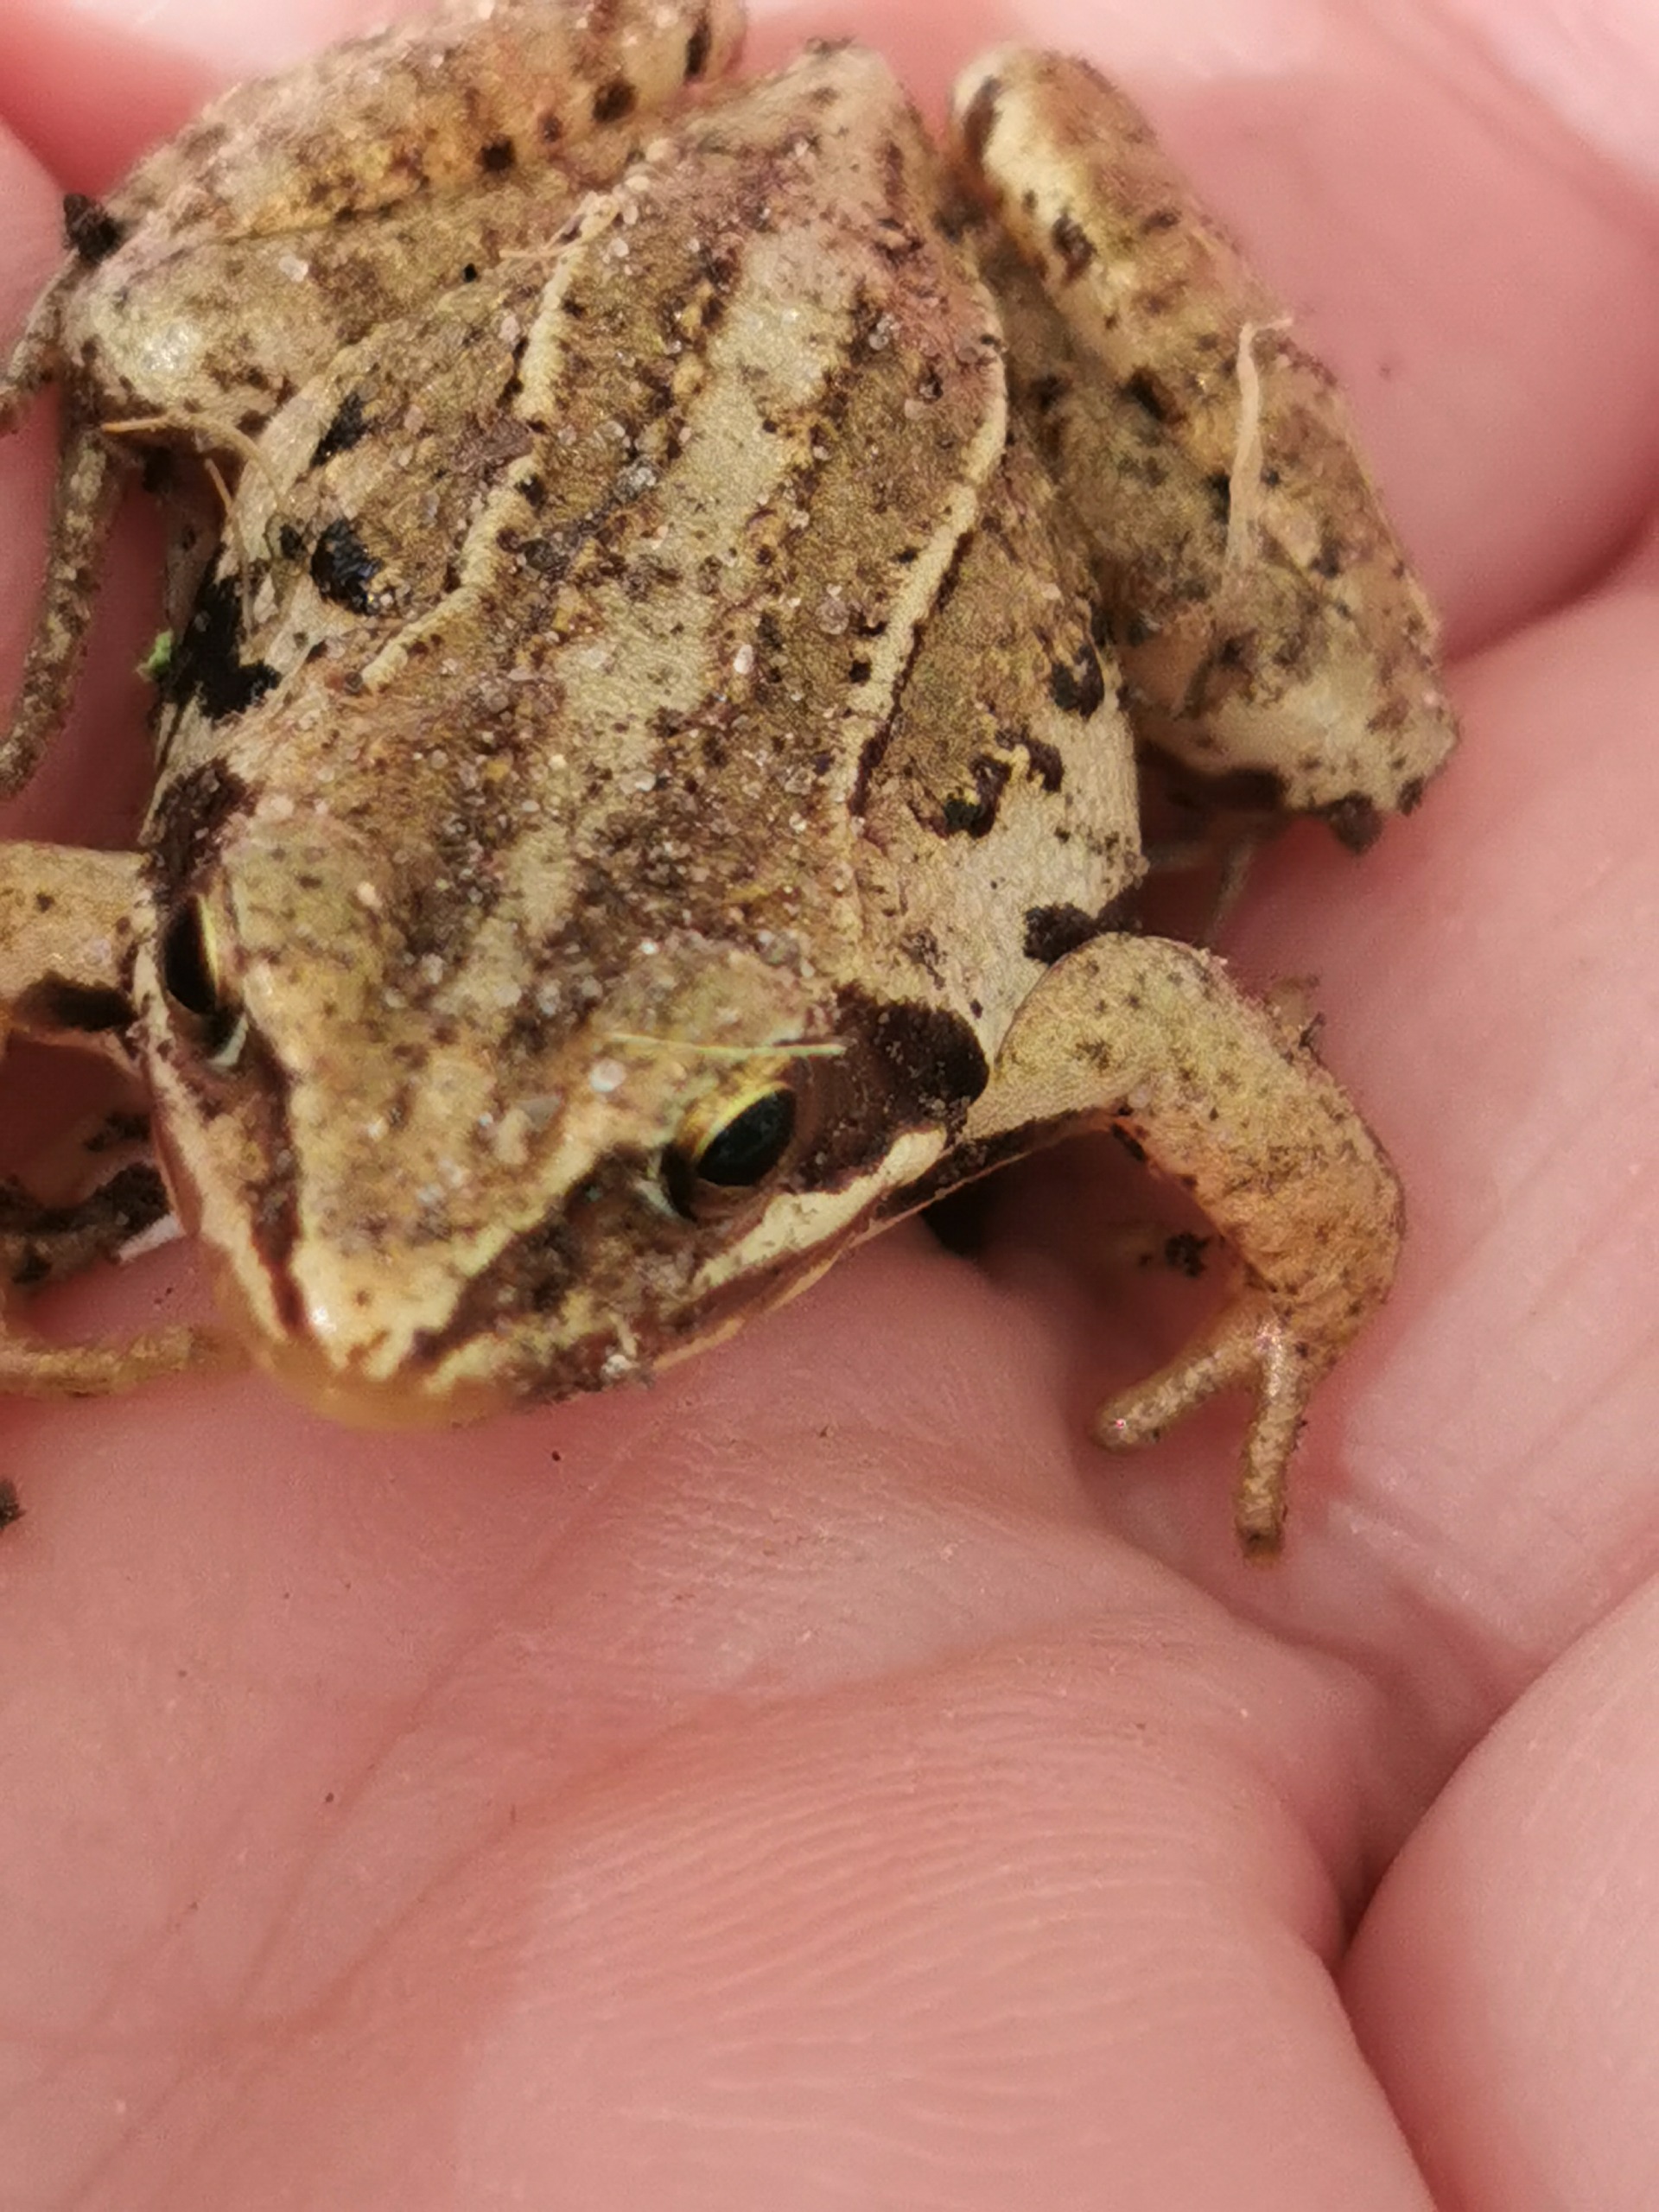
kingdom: Animalia
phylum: Chordata
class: Amphibia
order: Anura
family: Ranidae
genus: Rana
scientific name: Rana arvalis
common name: Spidssnudet frø
